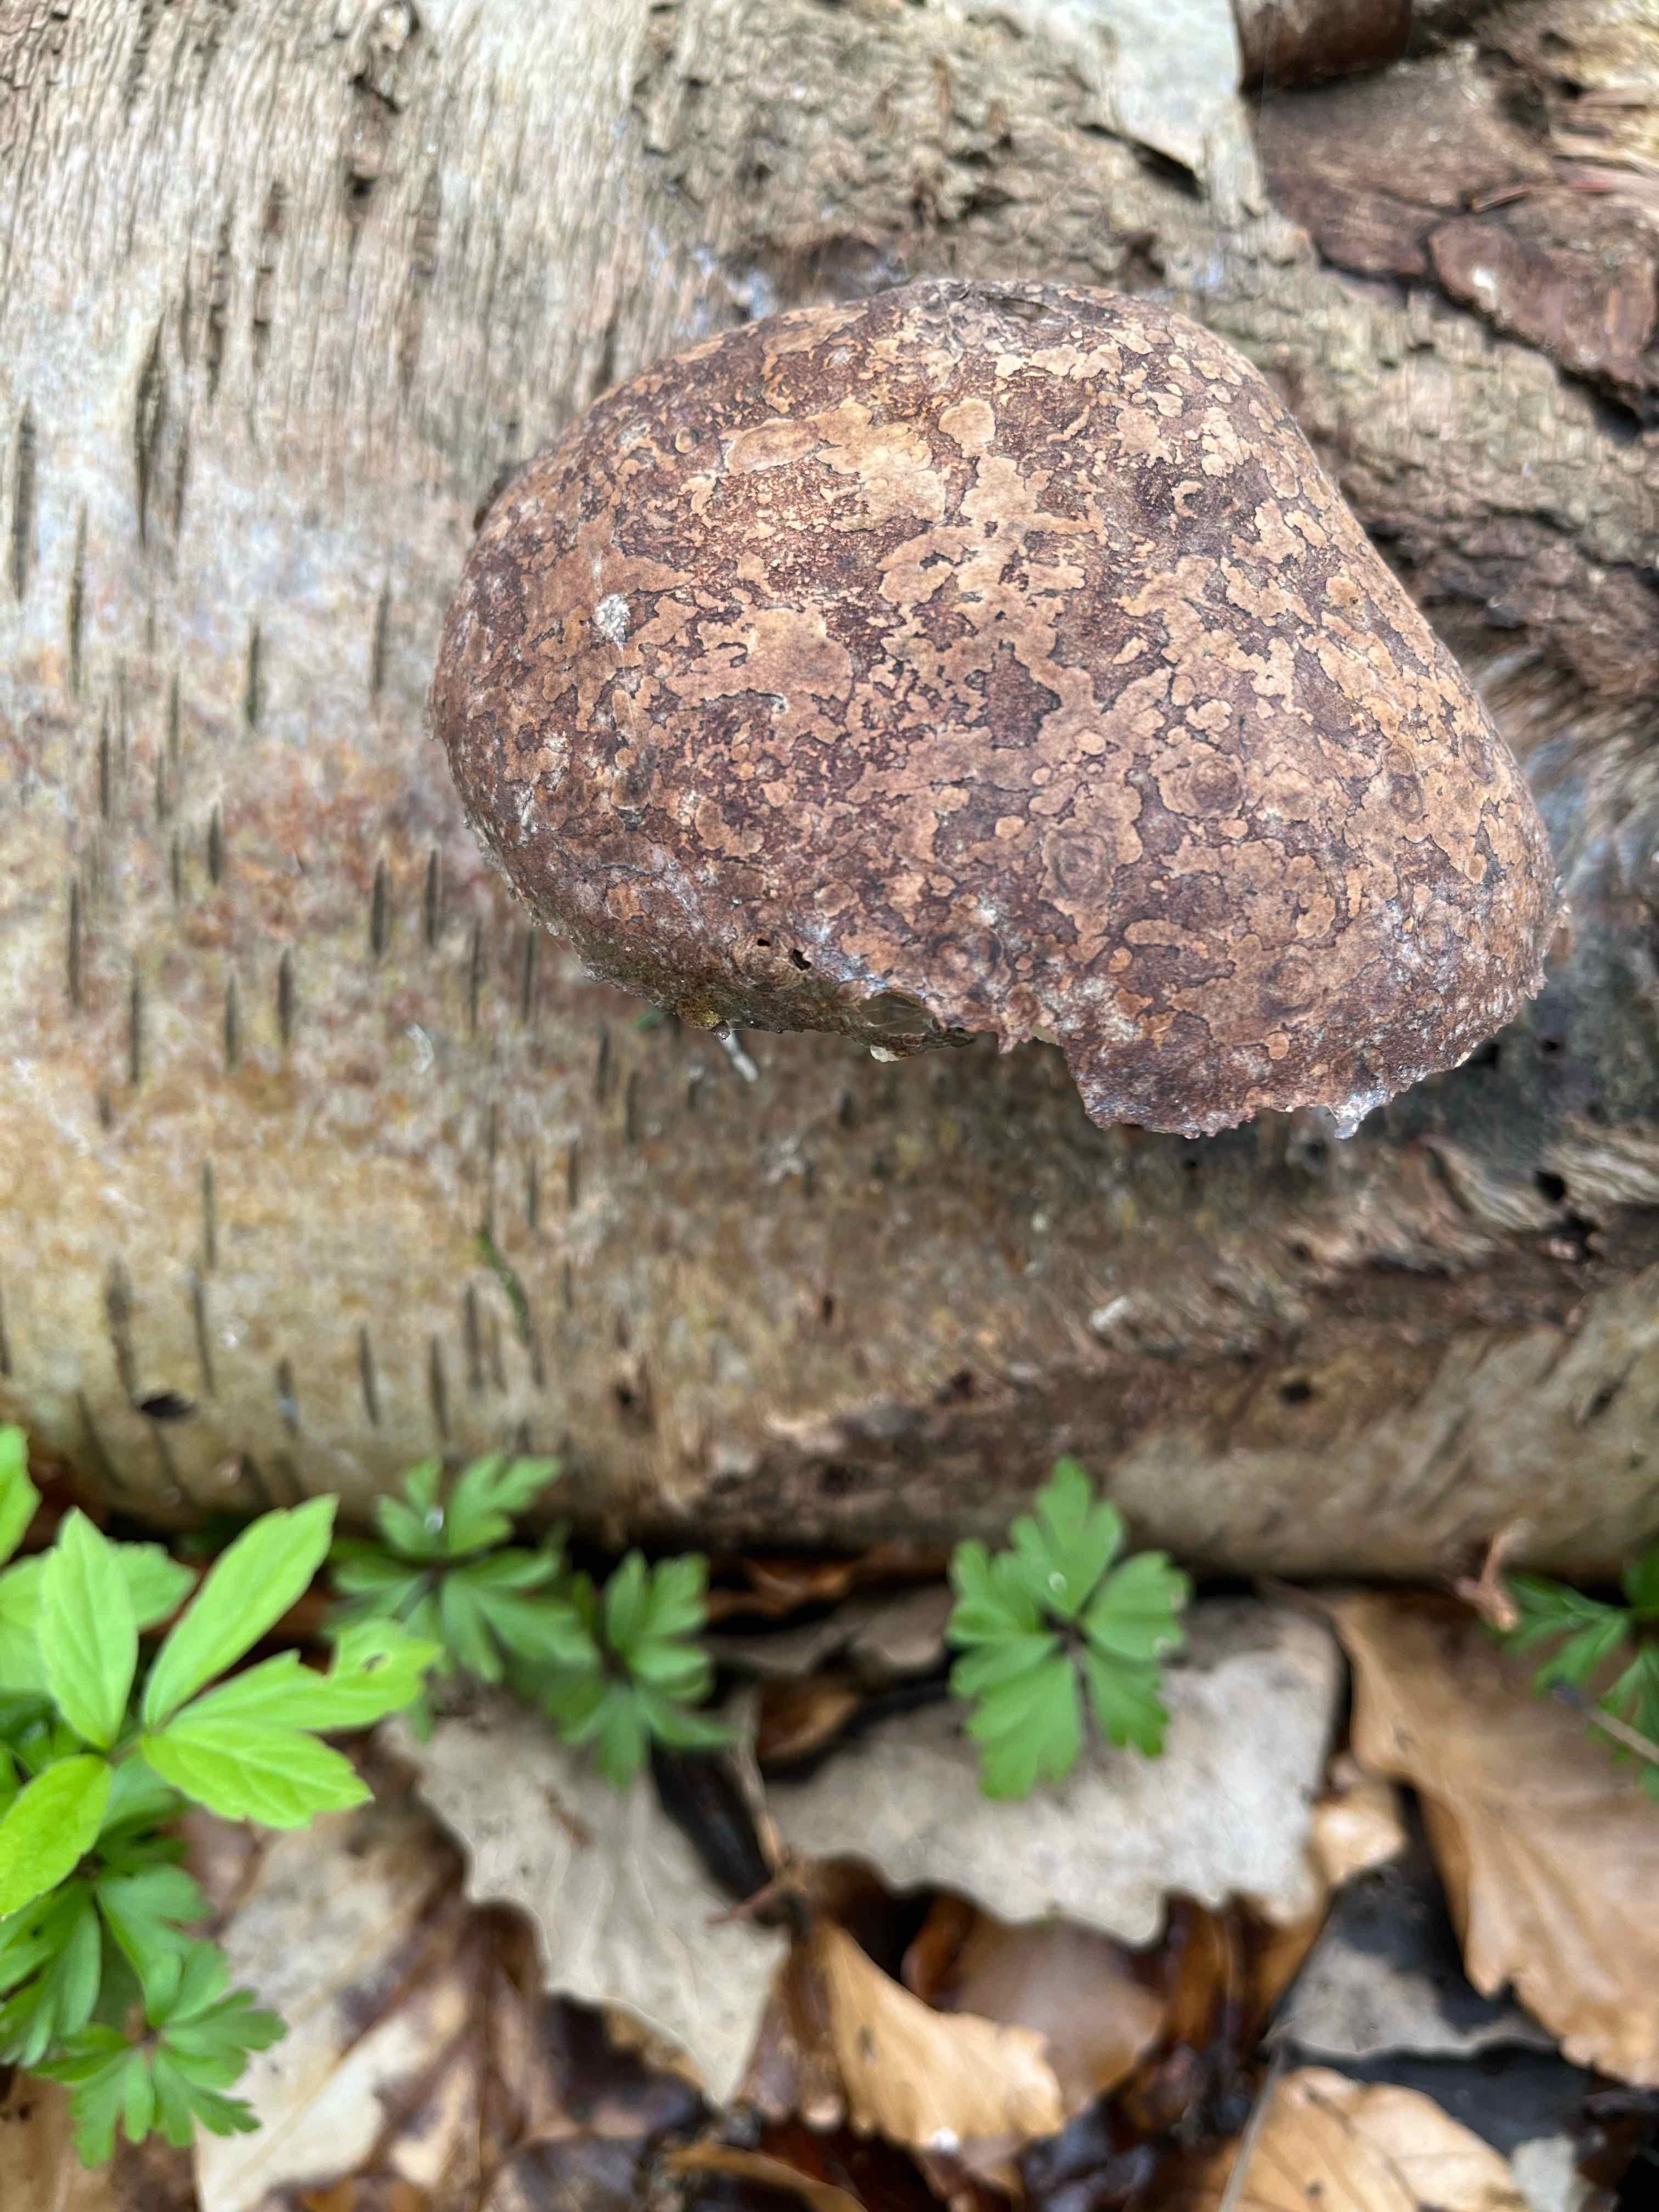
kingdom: Fungi
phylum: Basidiomycota
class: Agaricomycetes
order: Polyporales
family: Fomitopsidaceae
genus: Fomitopsis
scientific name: Fomitopsis betulina
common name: birkeporesvamp
